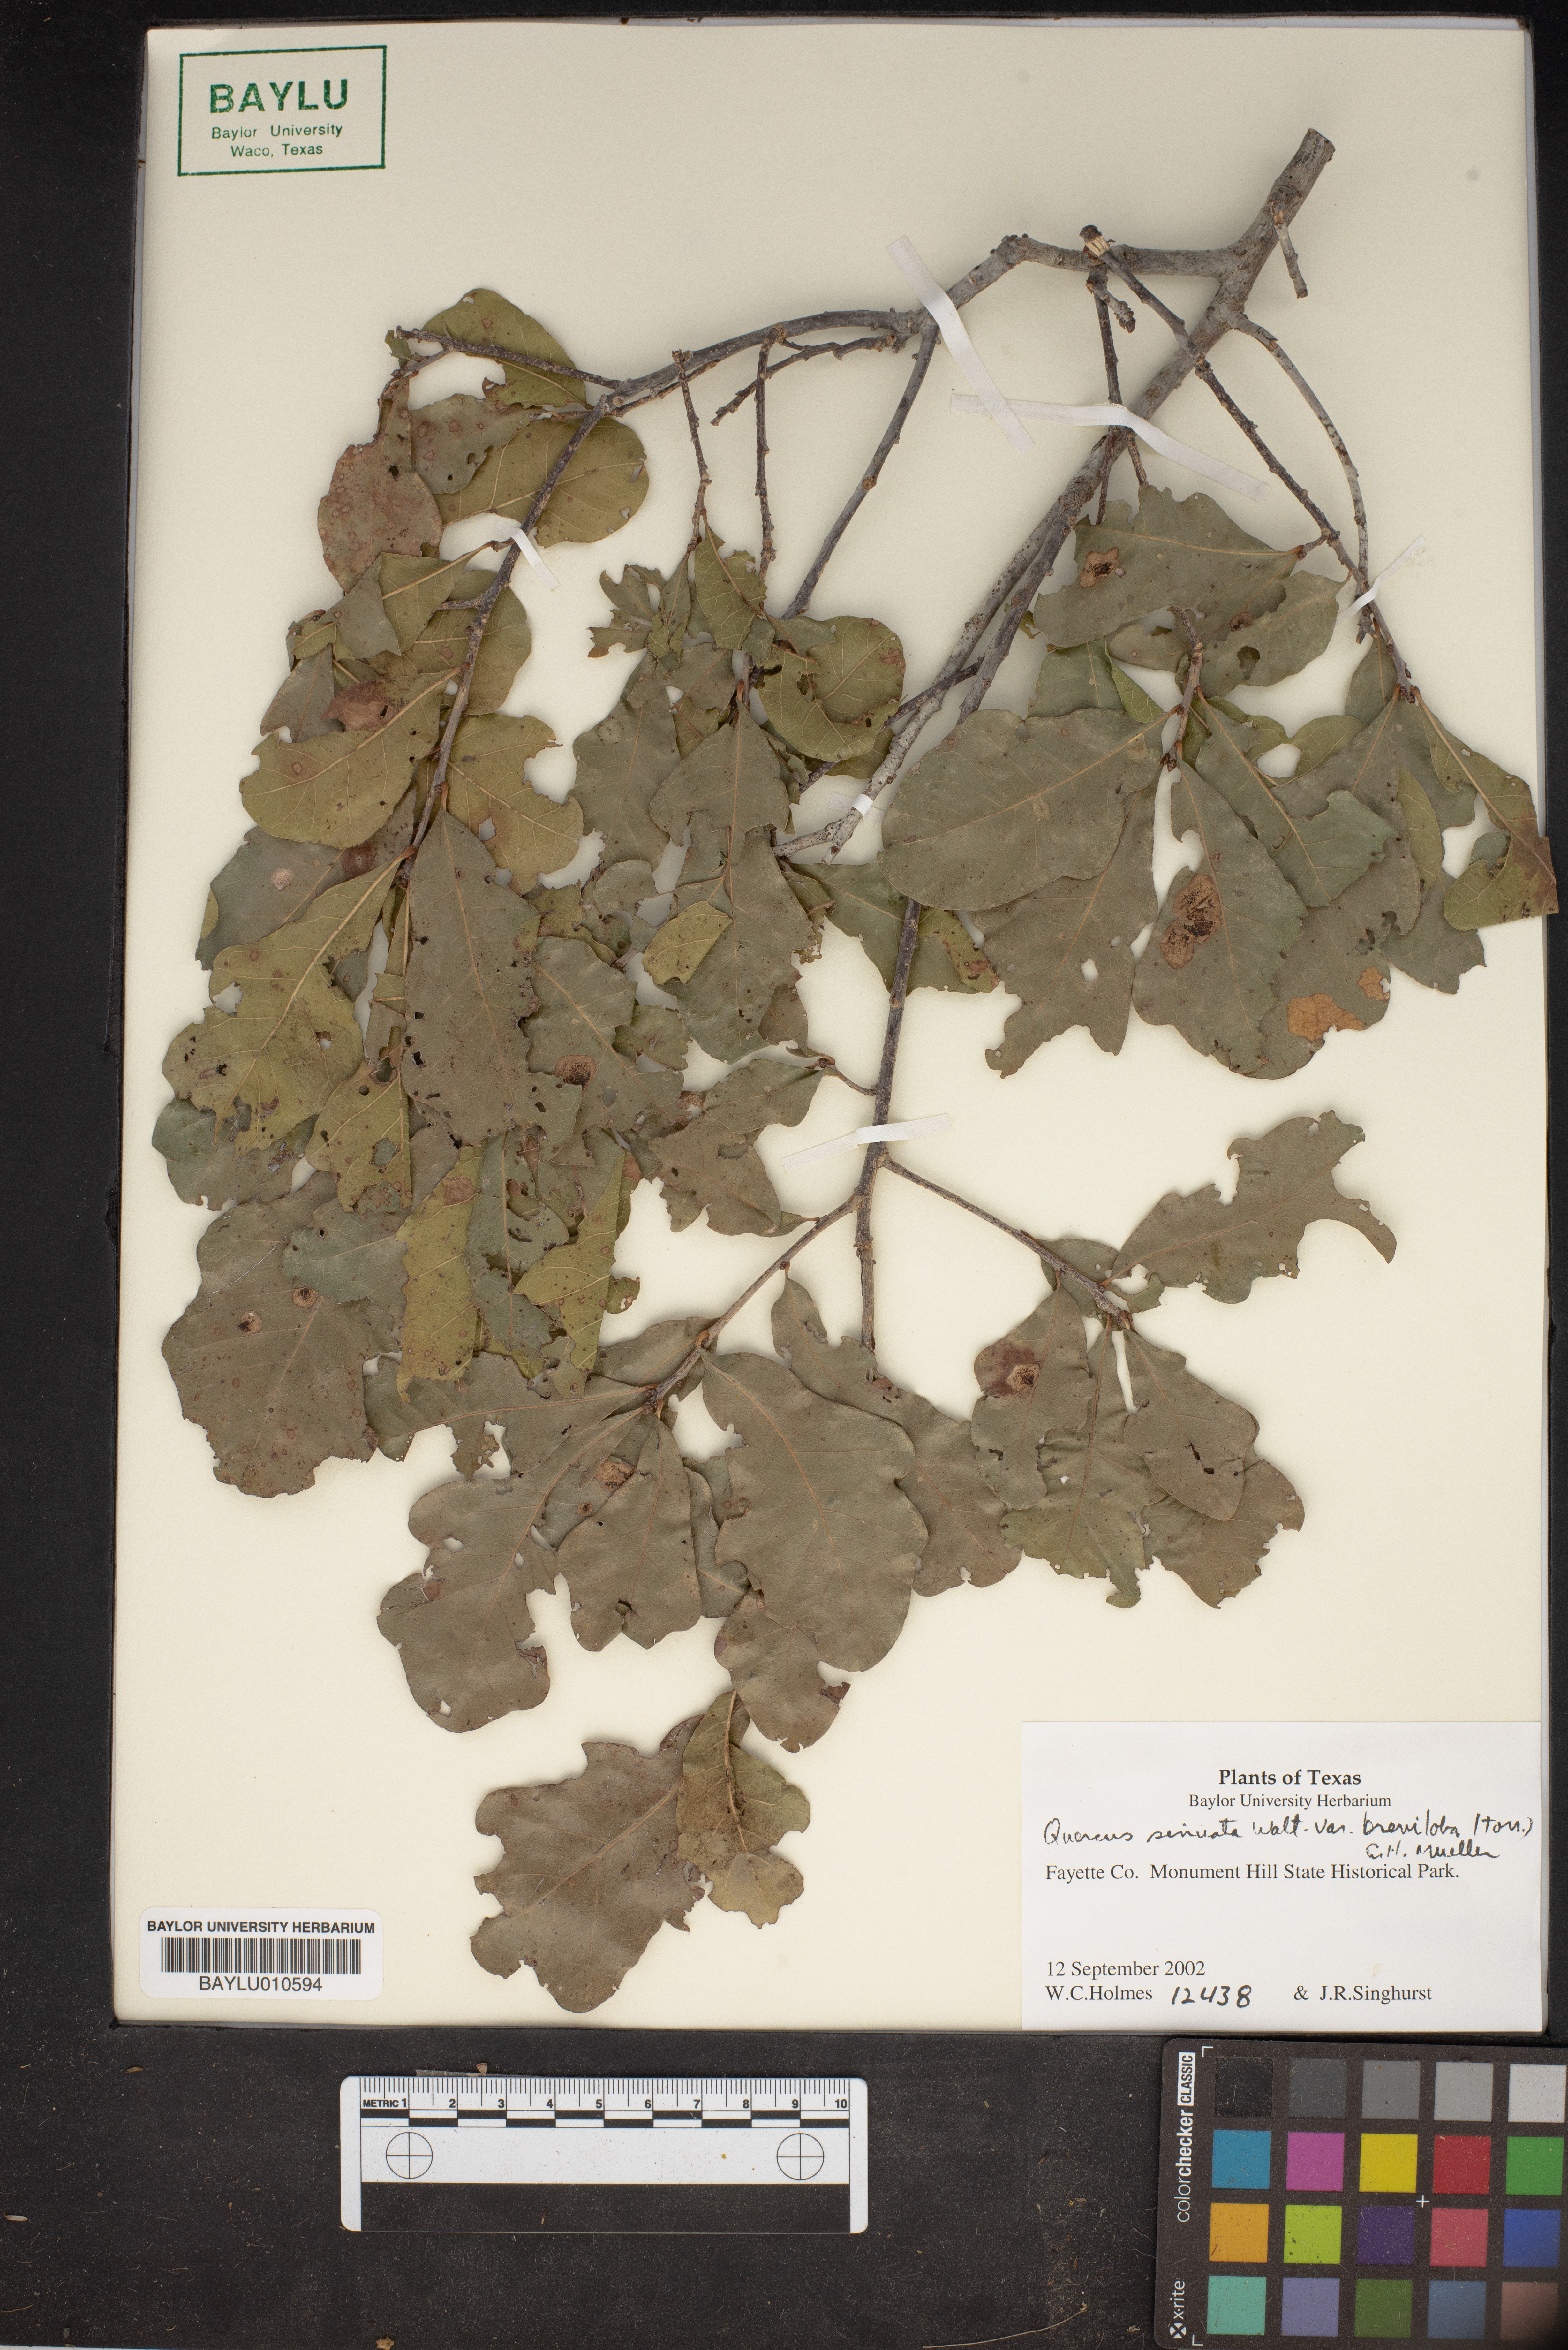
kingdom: Plantae
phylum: Tracheophyta
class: Magnoliopsida
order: Fagales
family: Fagaceae
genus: Quercus
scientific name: Quercus sinuata
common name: Durand oak
